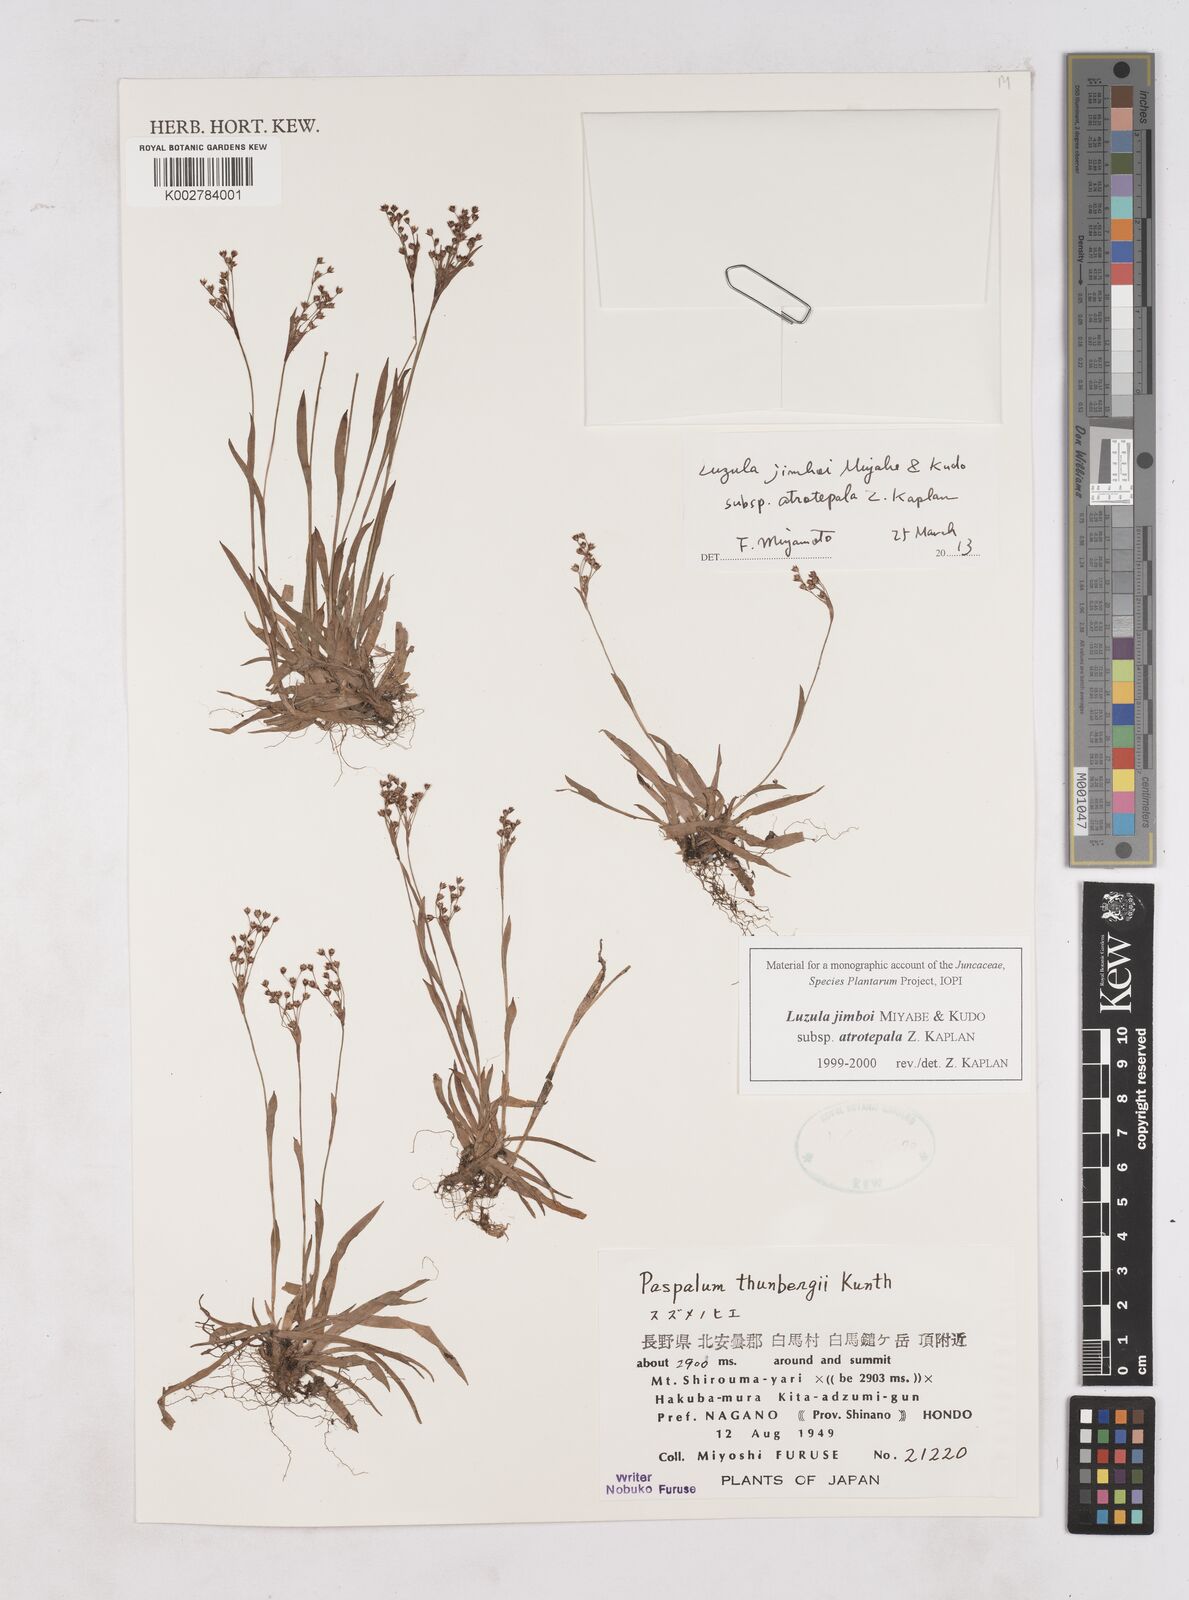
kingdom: Plantae
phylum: Tracheophyta
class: Liliopsida
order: Poales
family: Juncaceae
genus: Luzula
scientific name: Luzula jimboi
